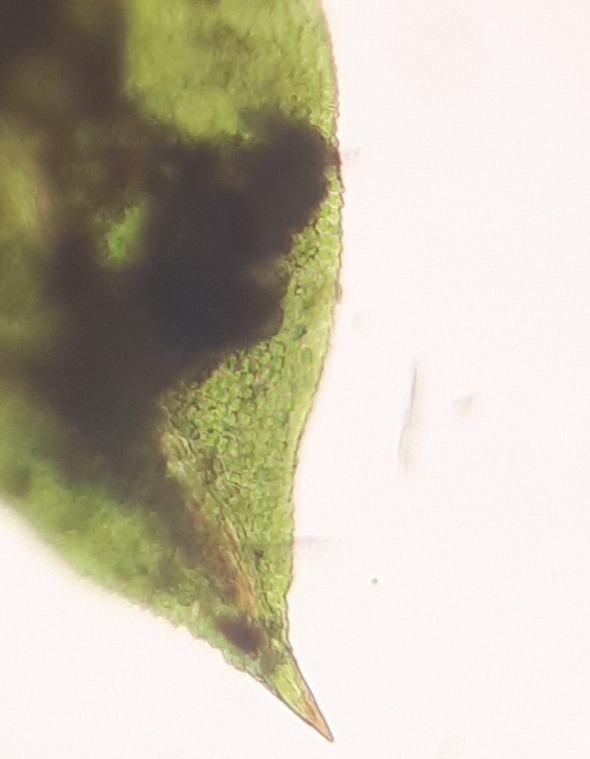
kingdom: Plantae
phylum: Bryophyta
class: Bryopsida
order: Dicranales
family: Fissidentaceae
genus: Fissidens
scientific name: Fissidens taxifolius
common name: Taksbladet rademos
